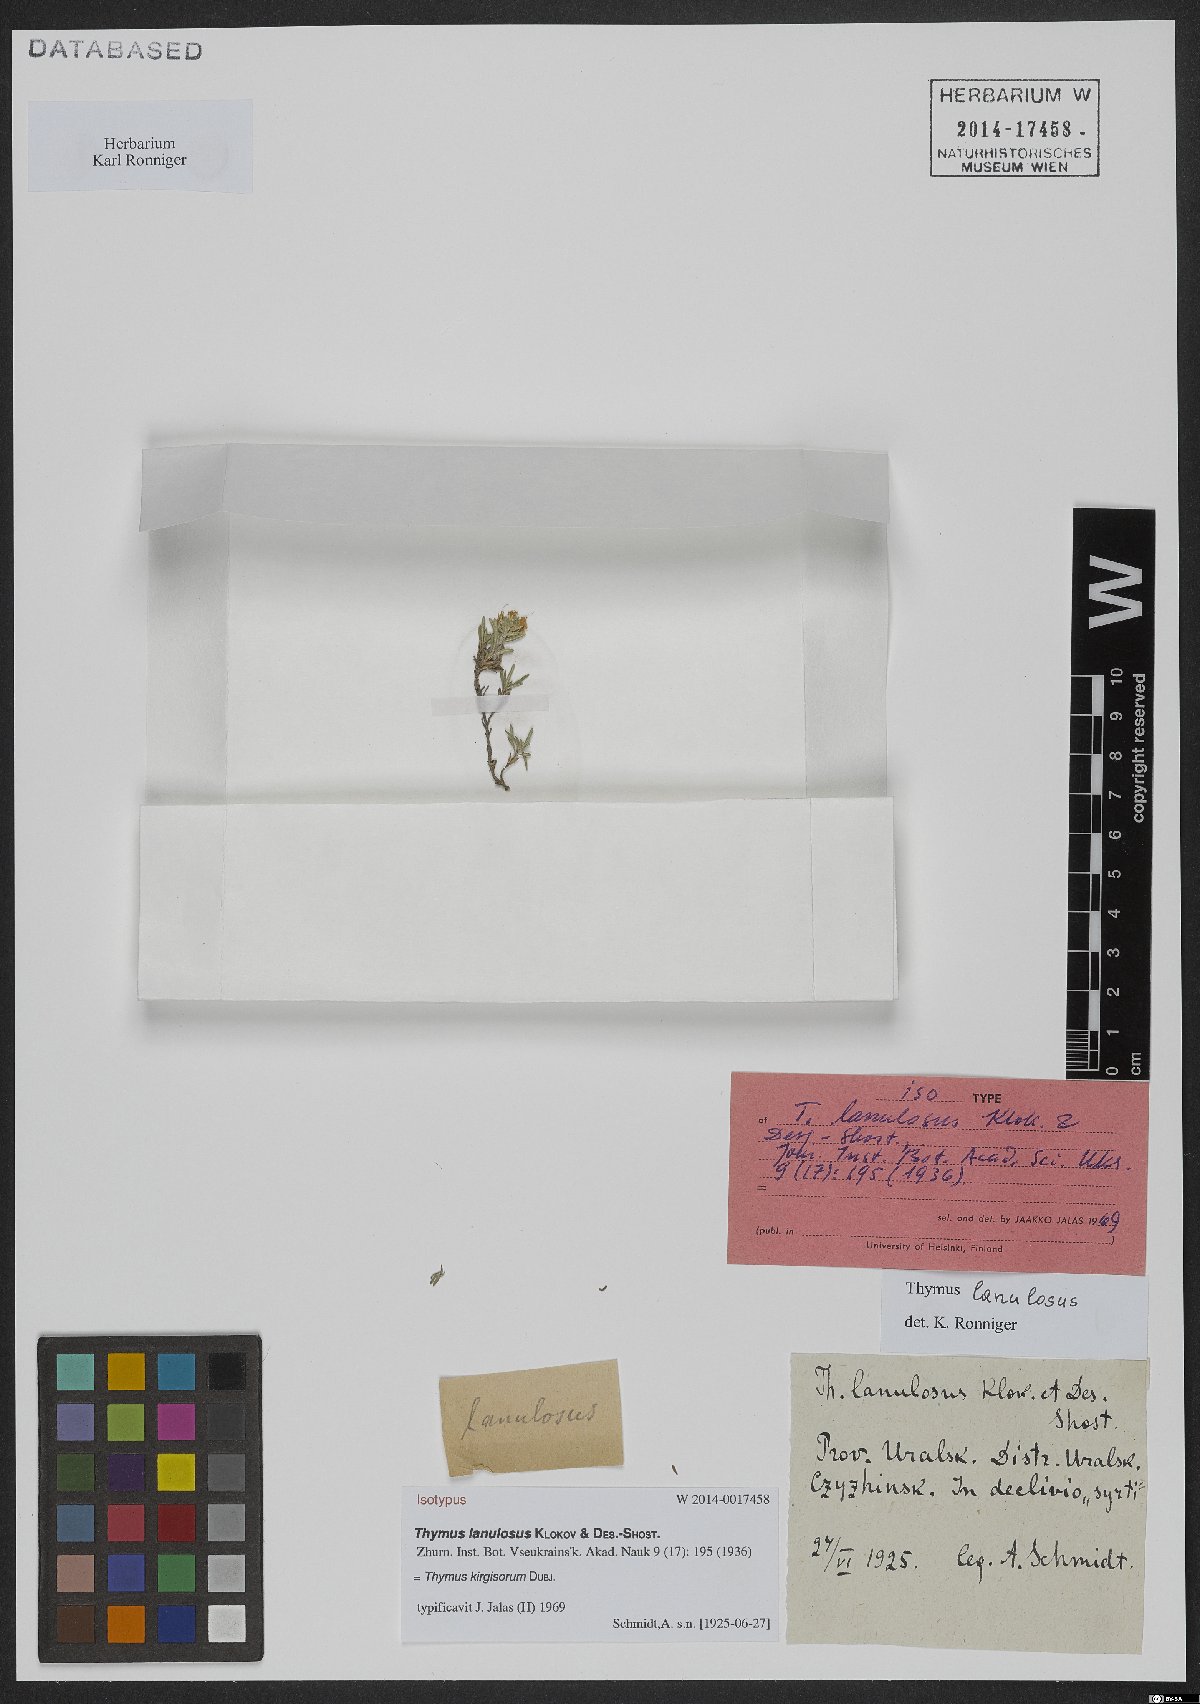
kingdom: Plantae
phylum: Tracheophyta
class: Magnoliopsida
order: Lamiales
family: Lamiaceae
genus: Thymus
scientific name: Thymus kirgisorum
